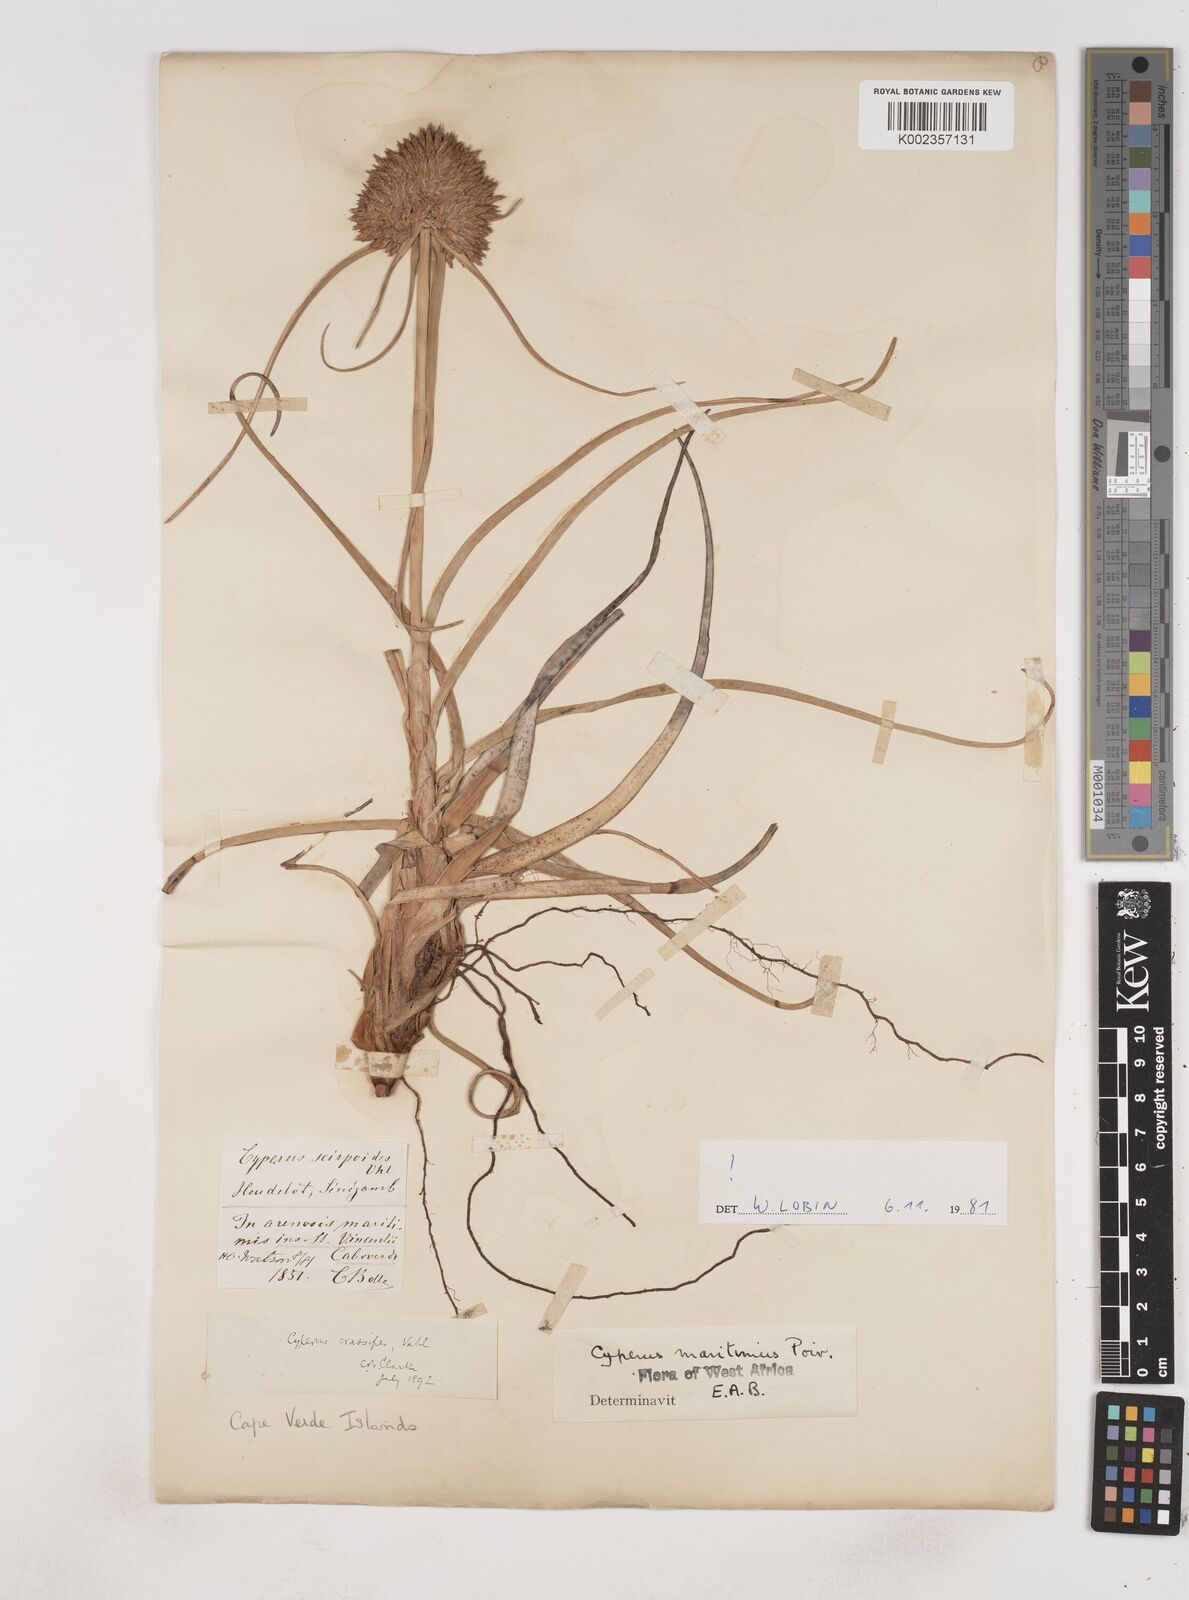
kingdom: Plantae
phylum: Tracheophyta
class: Liliopsida
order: Poales
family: Cyperaceae
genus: Cyperus
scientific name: Cyperus crassipes
